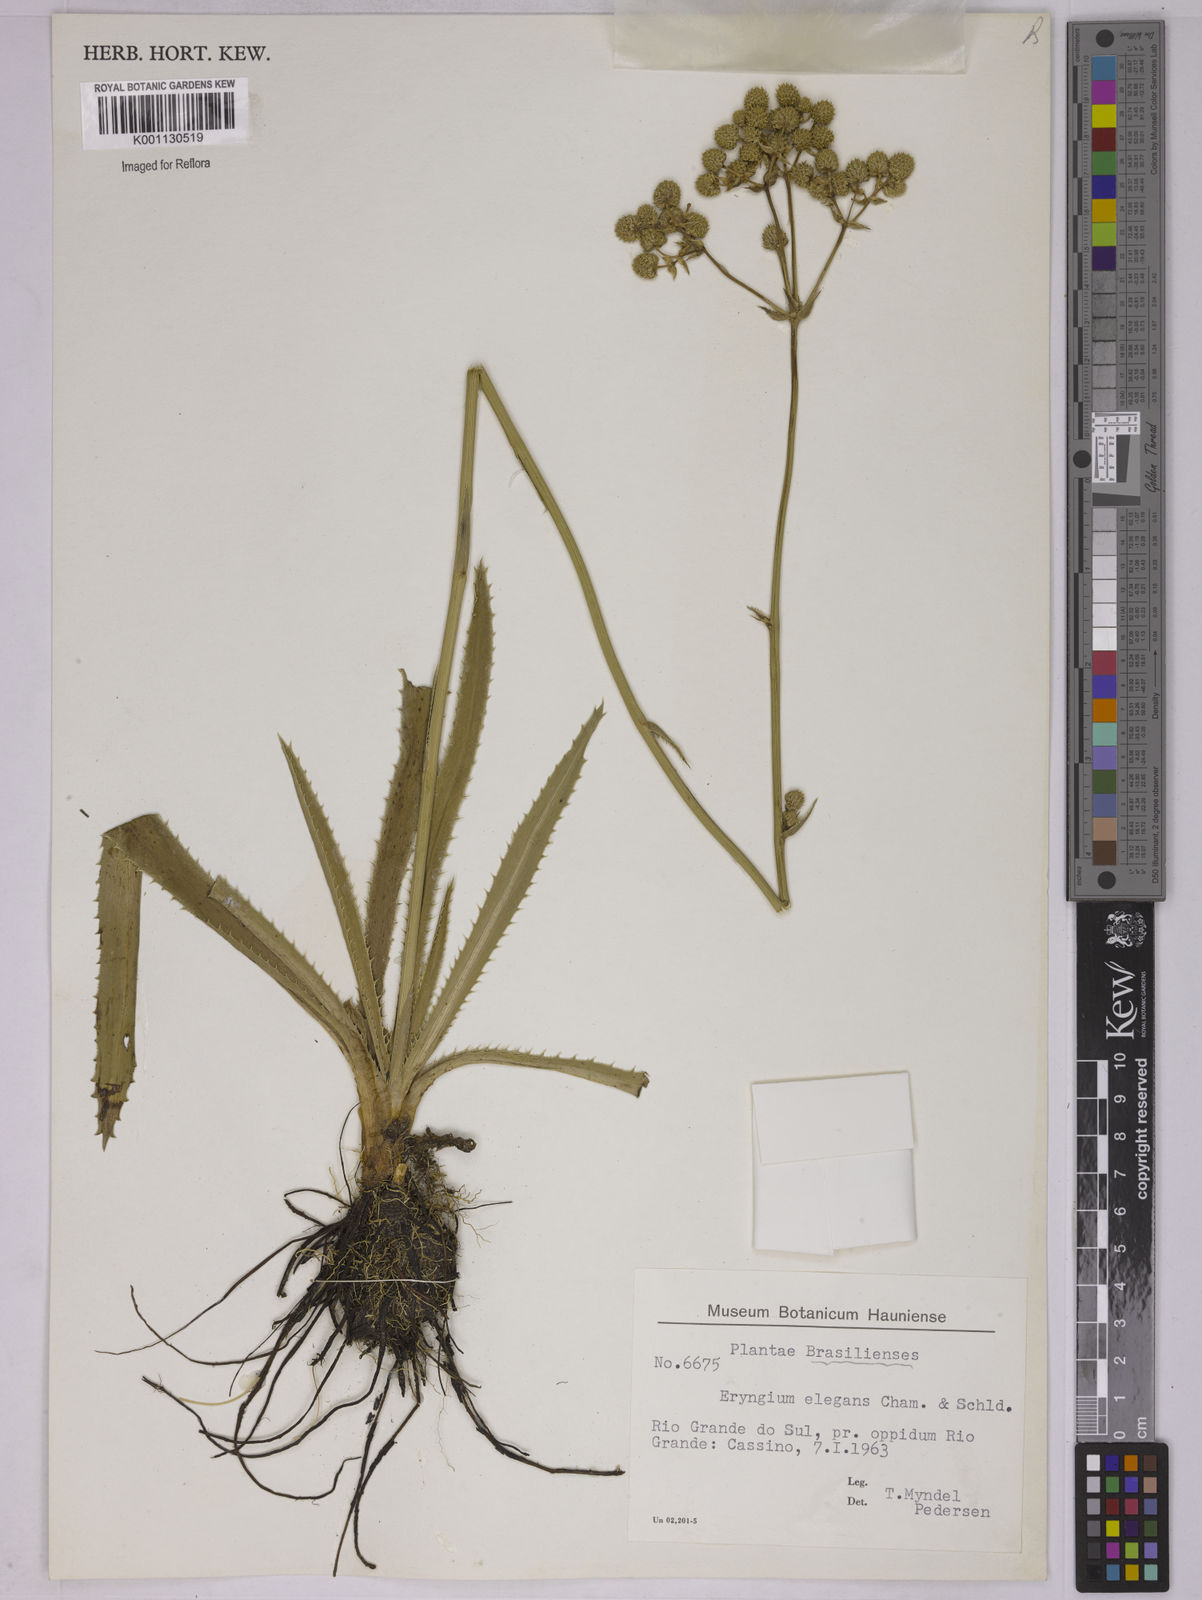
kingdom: Plantae
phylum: Tracheophyta
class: Magnoliopsida
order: Apiales
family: Apiaceae
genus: Eryngium
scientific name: Eryngium elegans
